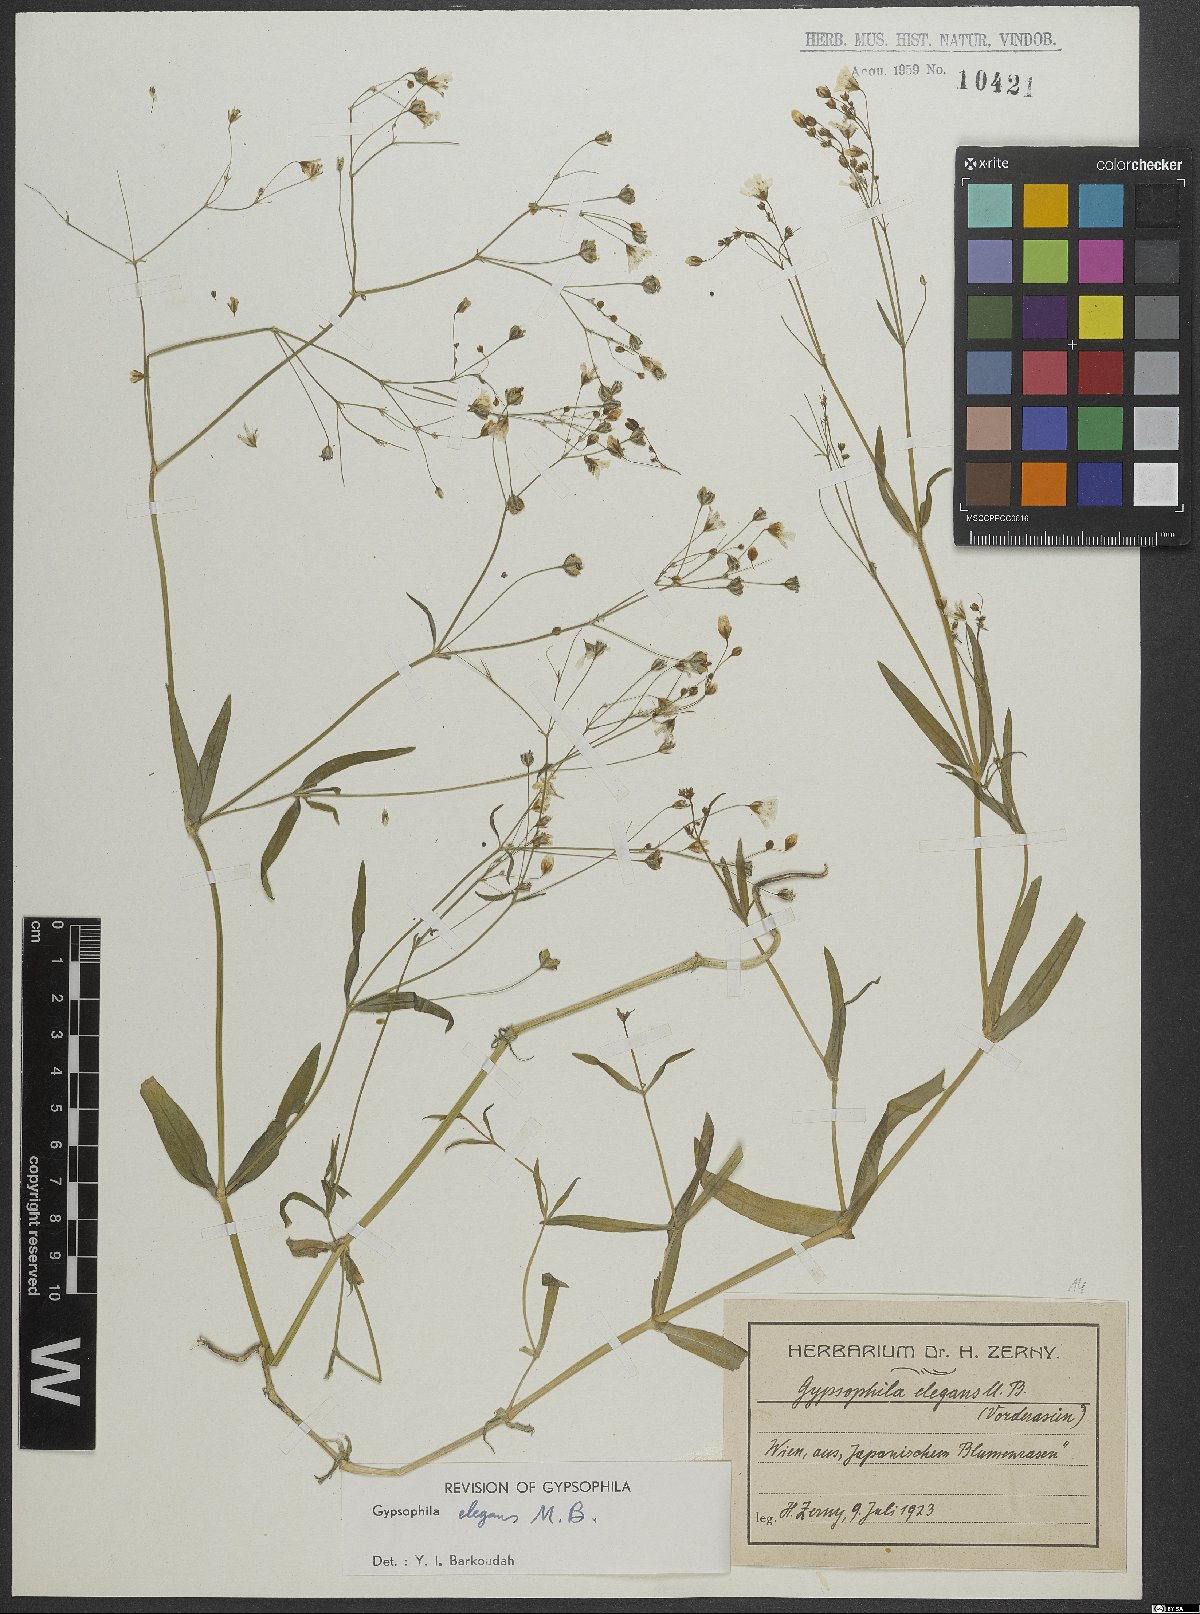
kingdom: Plantae
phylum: Tracheophyta
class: Magnoliopsida
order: Caryophyllales
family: Caryophyllaceae
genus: Gypsophila
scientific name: Gypsophila elegans
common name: Showy baby's-breath
